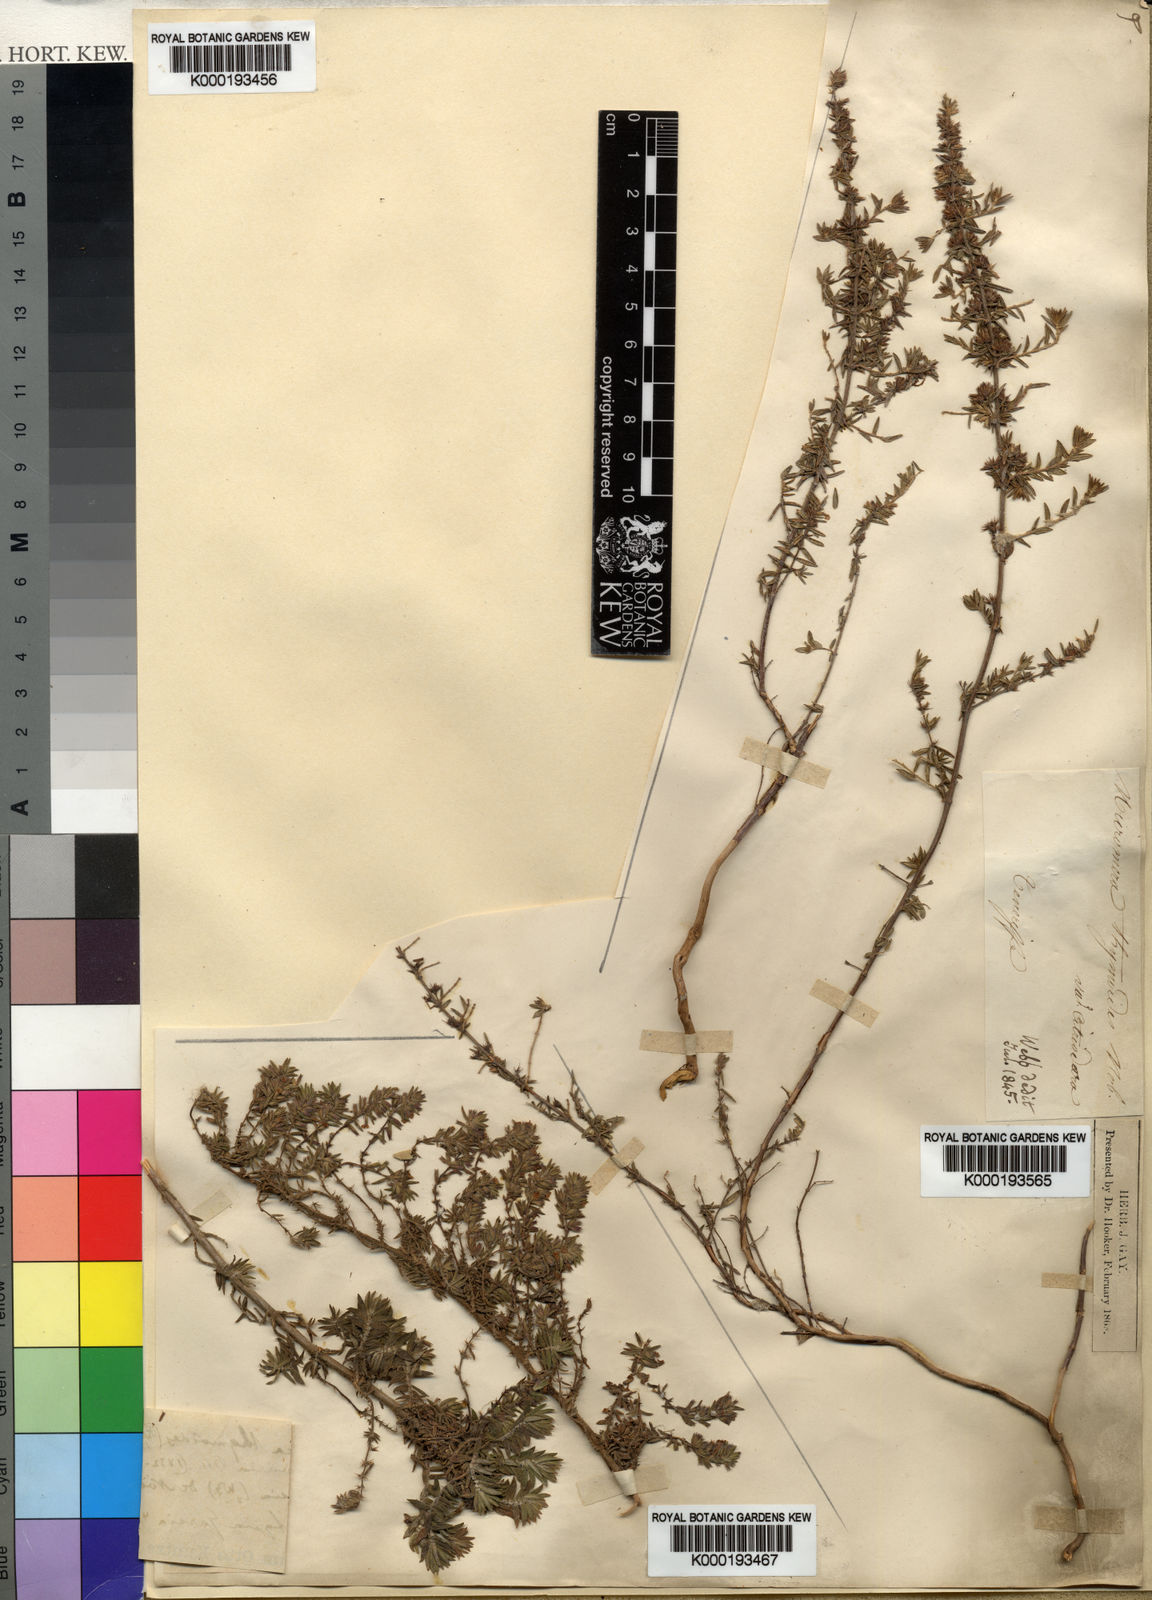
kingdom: Plantae
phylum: Tracheophyta
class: Magnoliopsida
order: Lamiales
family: Lamiaceae
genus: Micromeria
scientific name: Micromeria maderensis
